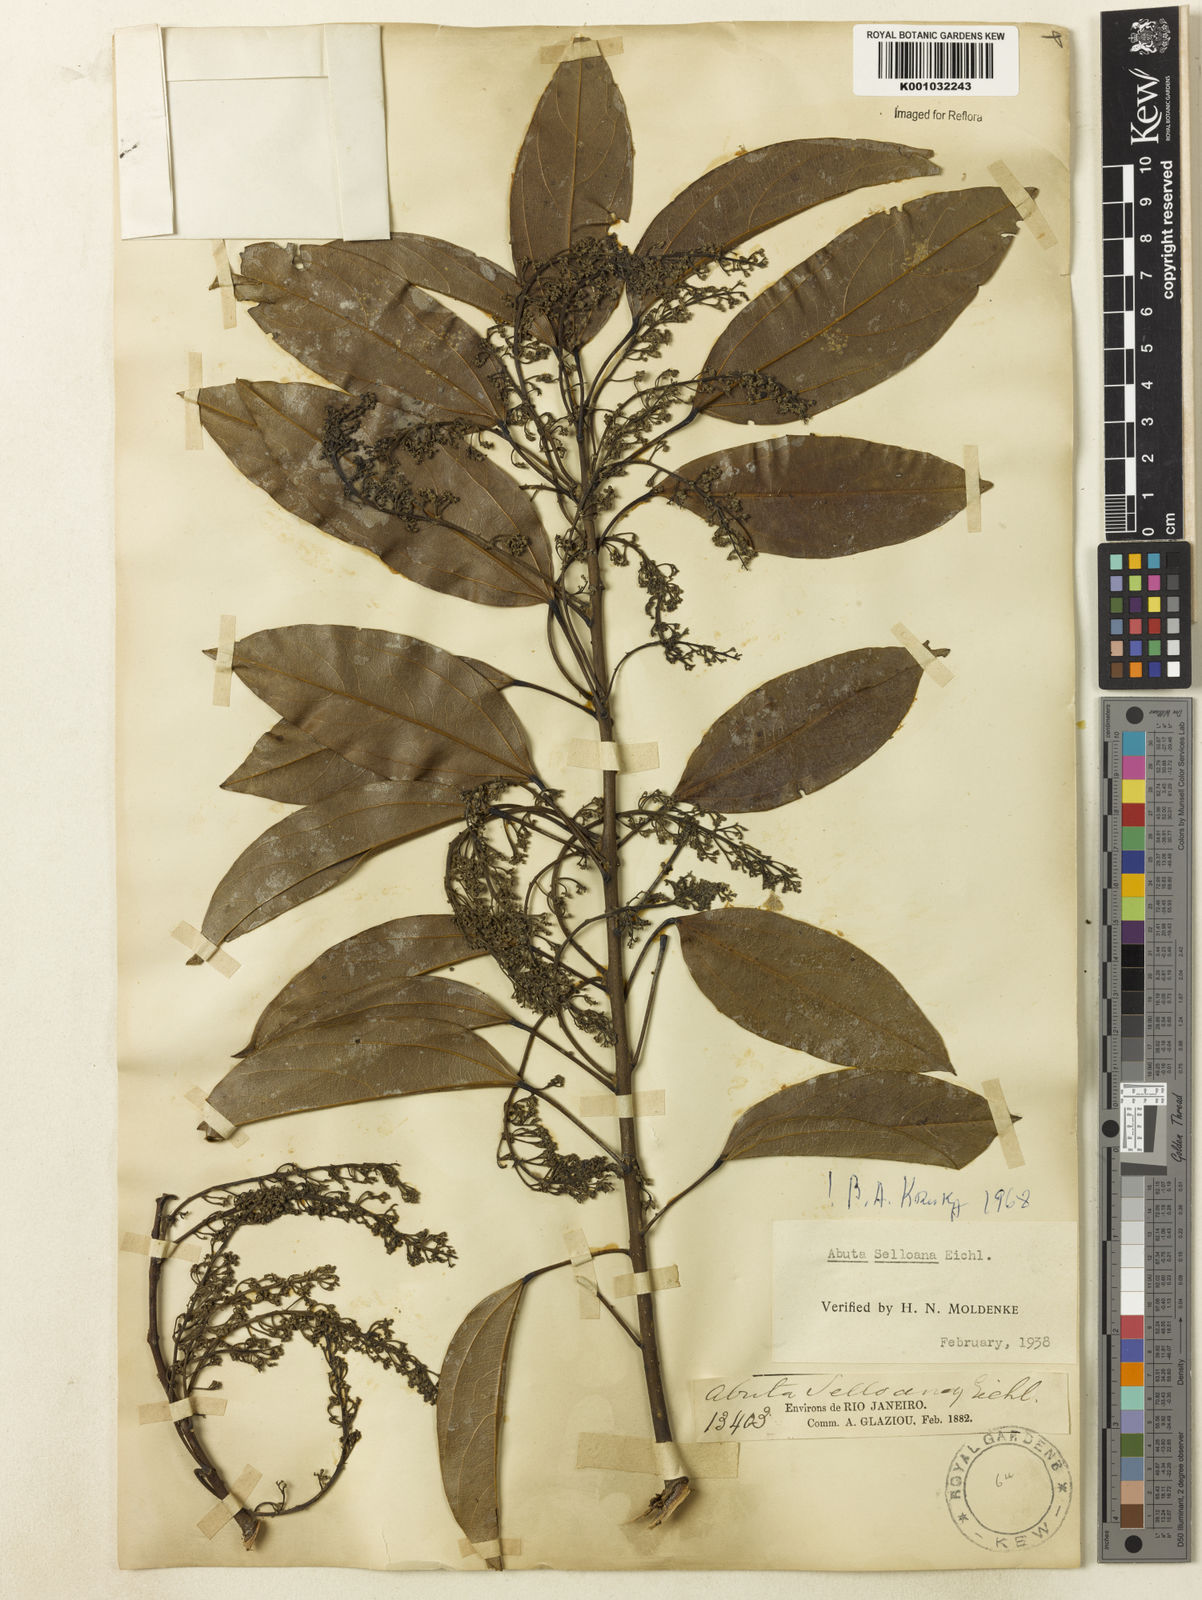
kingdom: Plantae
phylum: Tracheophyta
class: Magnoliopsida
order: Ranunculales
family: Menispermaceae
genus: Abuta
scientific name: Abuta selloana
